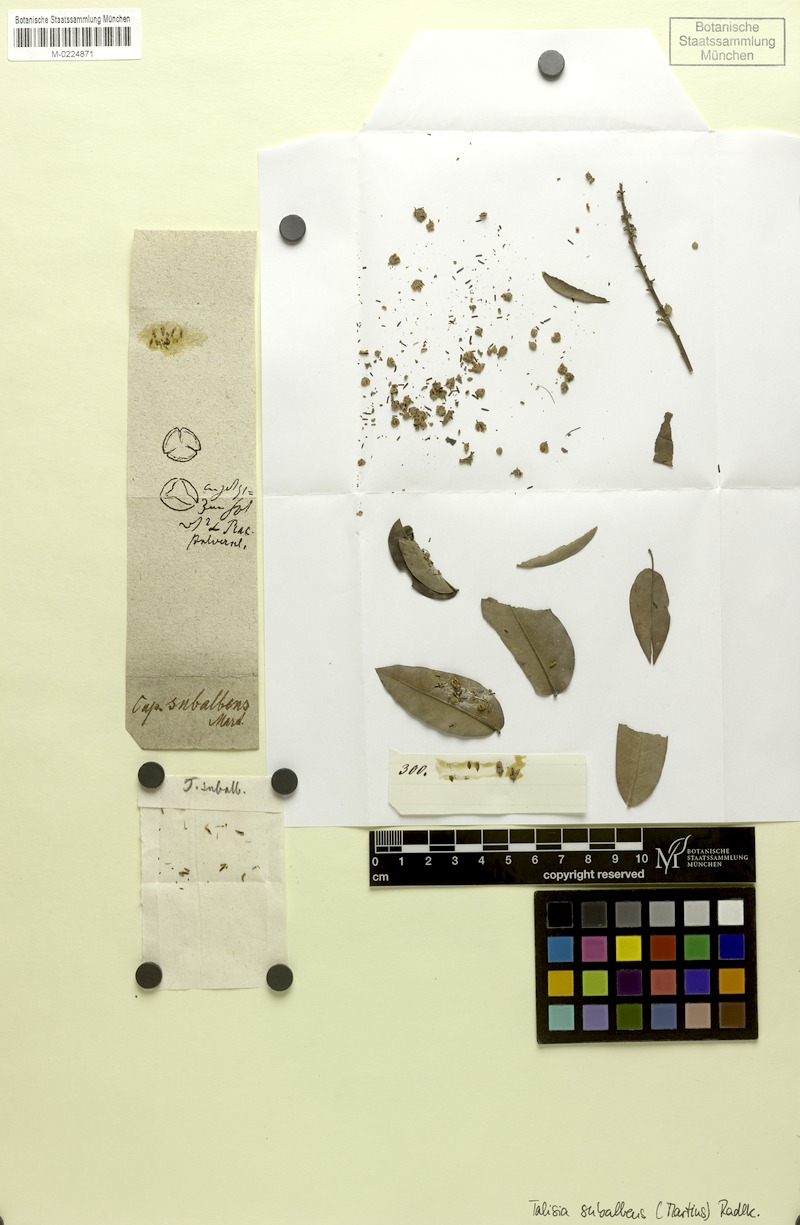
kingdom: Plantae
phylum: Tracheophyta
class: Magnoliopsida
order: Sapindales
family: Sapindaceae
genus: Talisia
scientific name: Talisia subalbens
